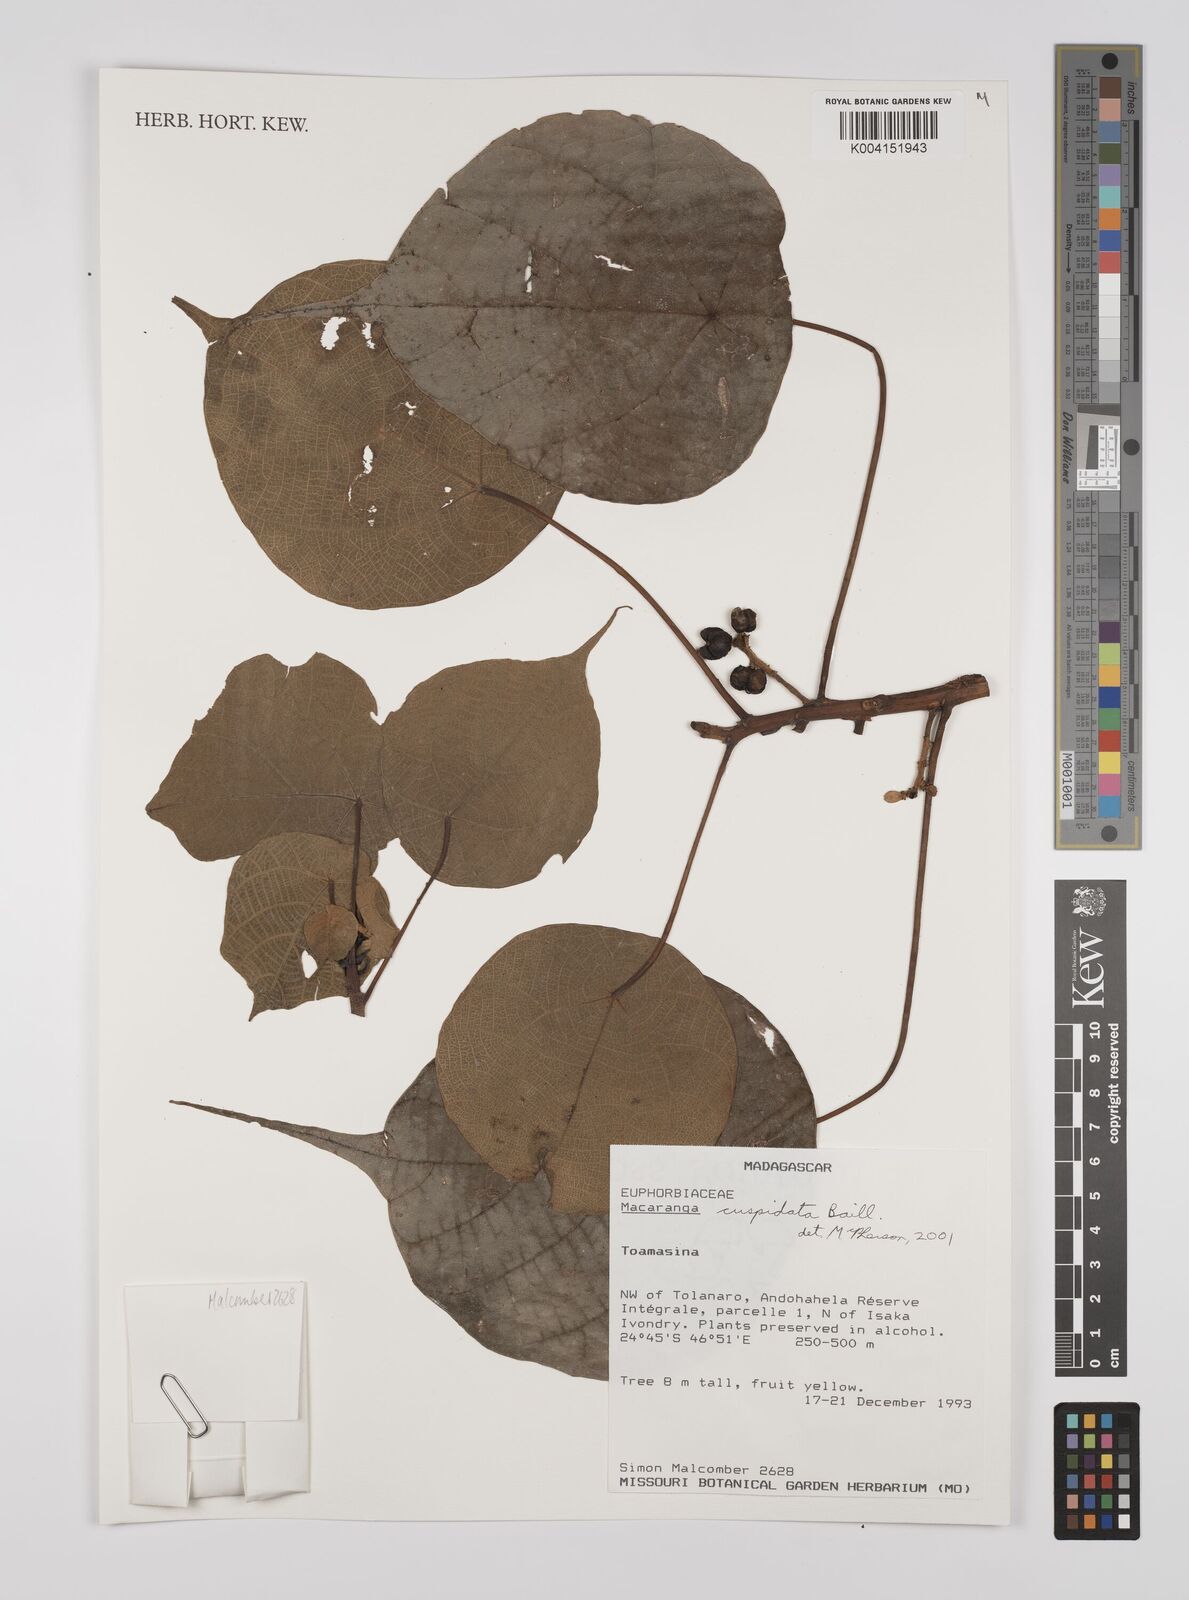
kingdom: Plantae
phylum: Tracheophyta
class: Magnoliopsida
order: Malpighiales
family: Euphorbiaceae
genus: Macaranga
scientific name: Macaranga cuspidata
